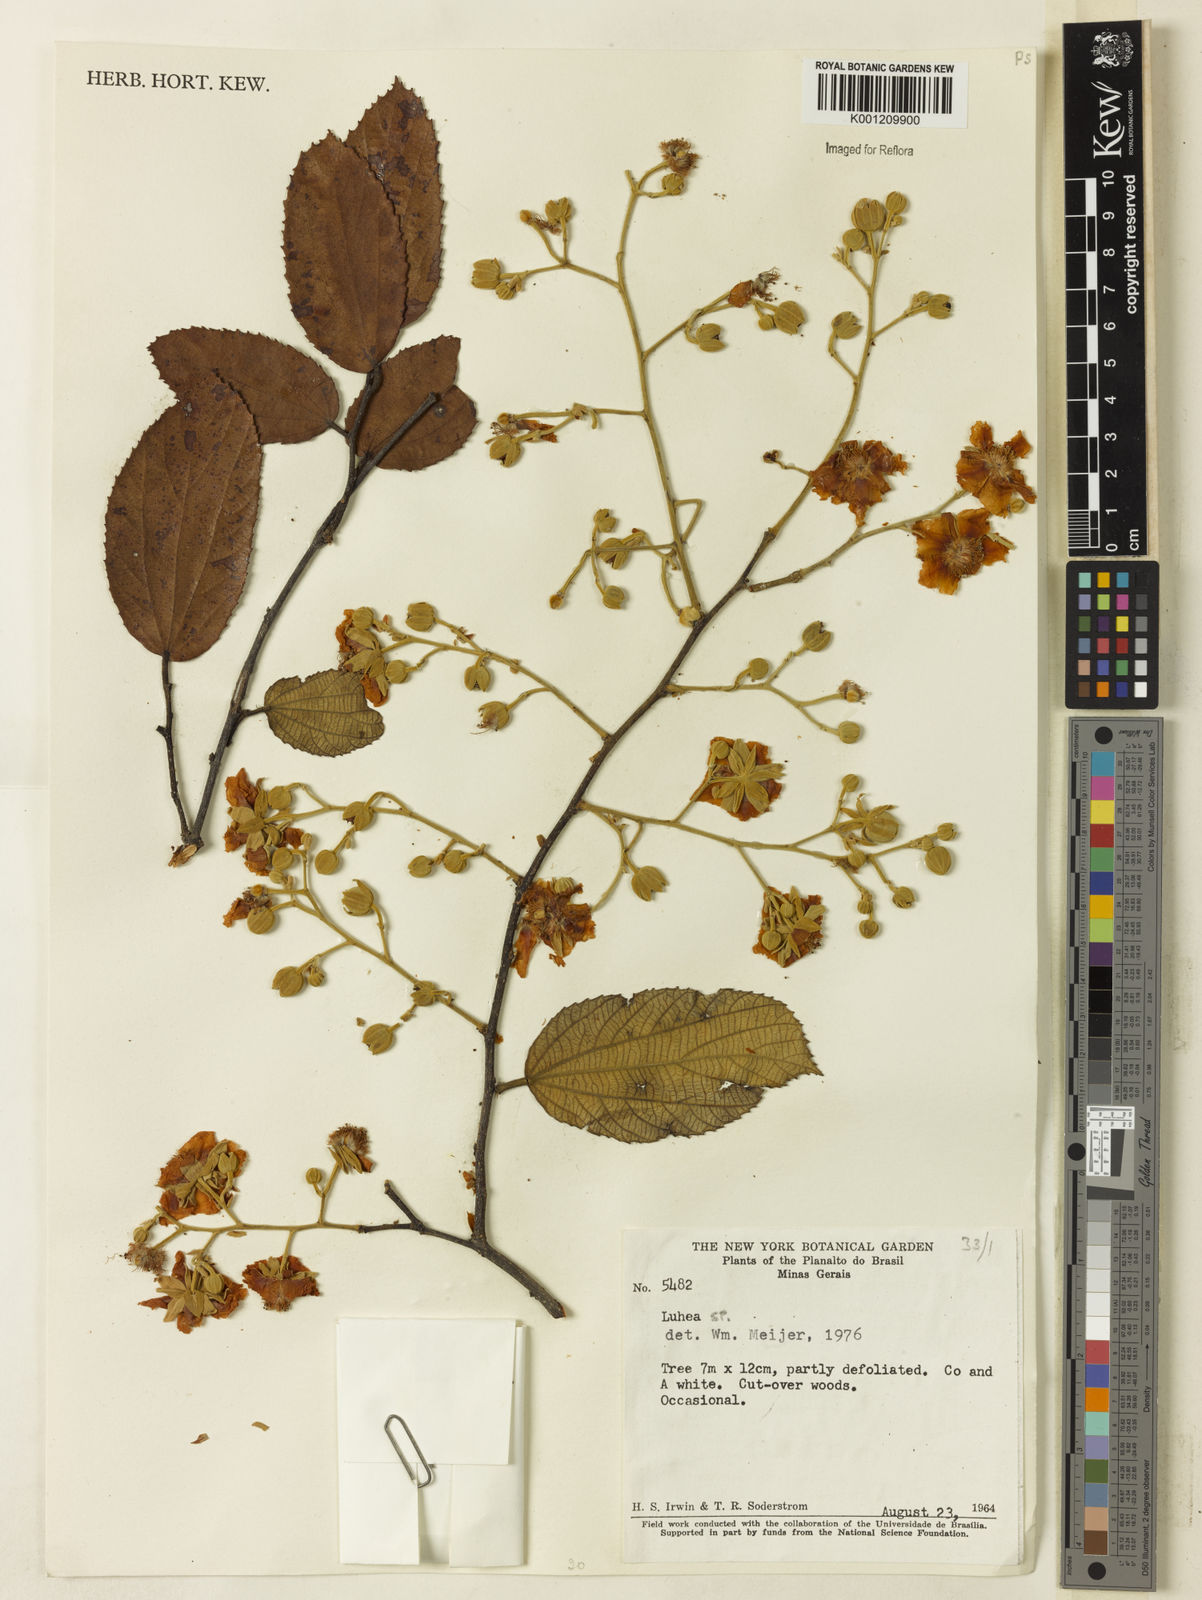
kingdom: Plantae
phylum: Tracheophyta
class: Magnoliopsida
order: Malvales
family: Malvaceae
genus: Luehea
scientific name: Luehea
